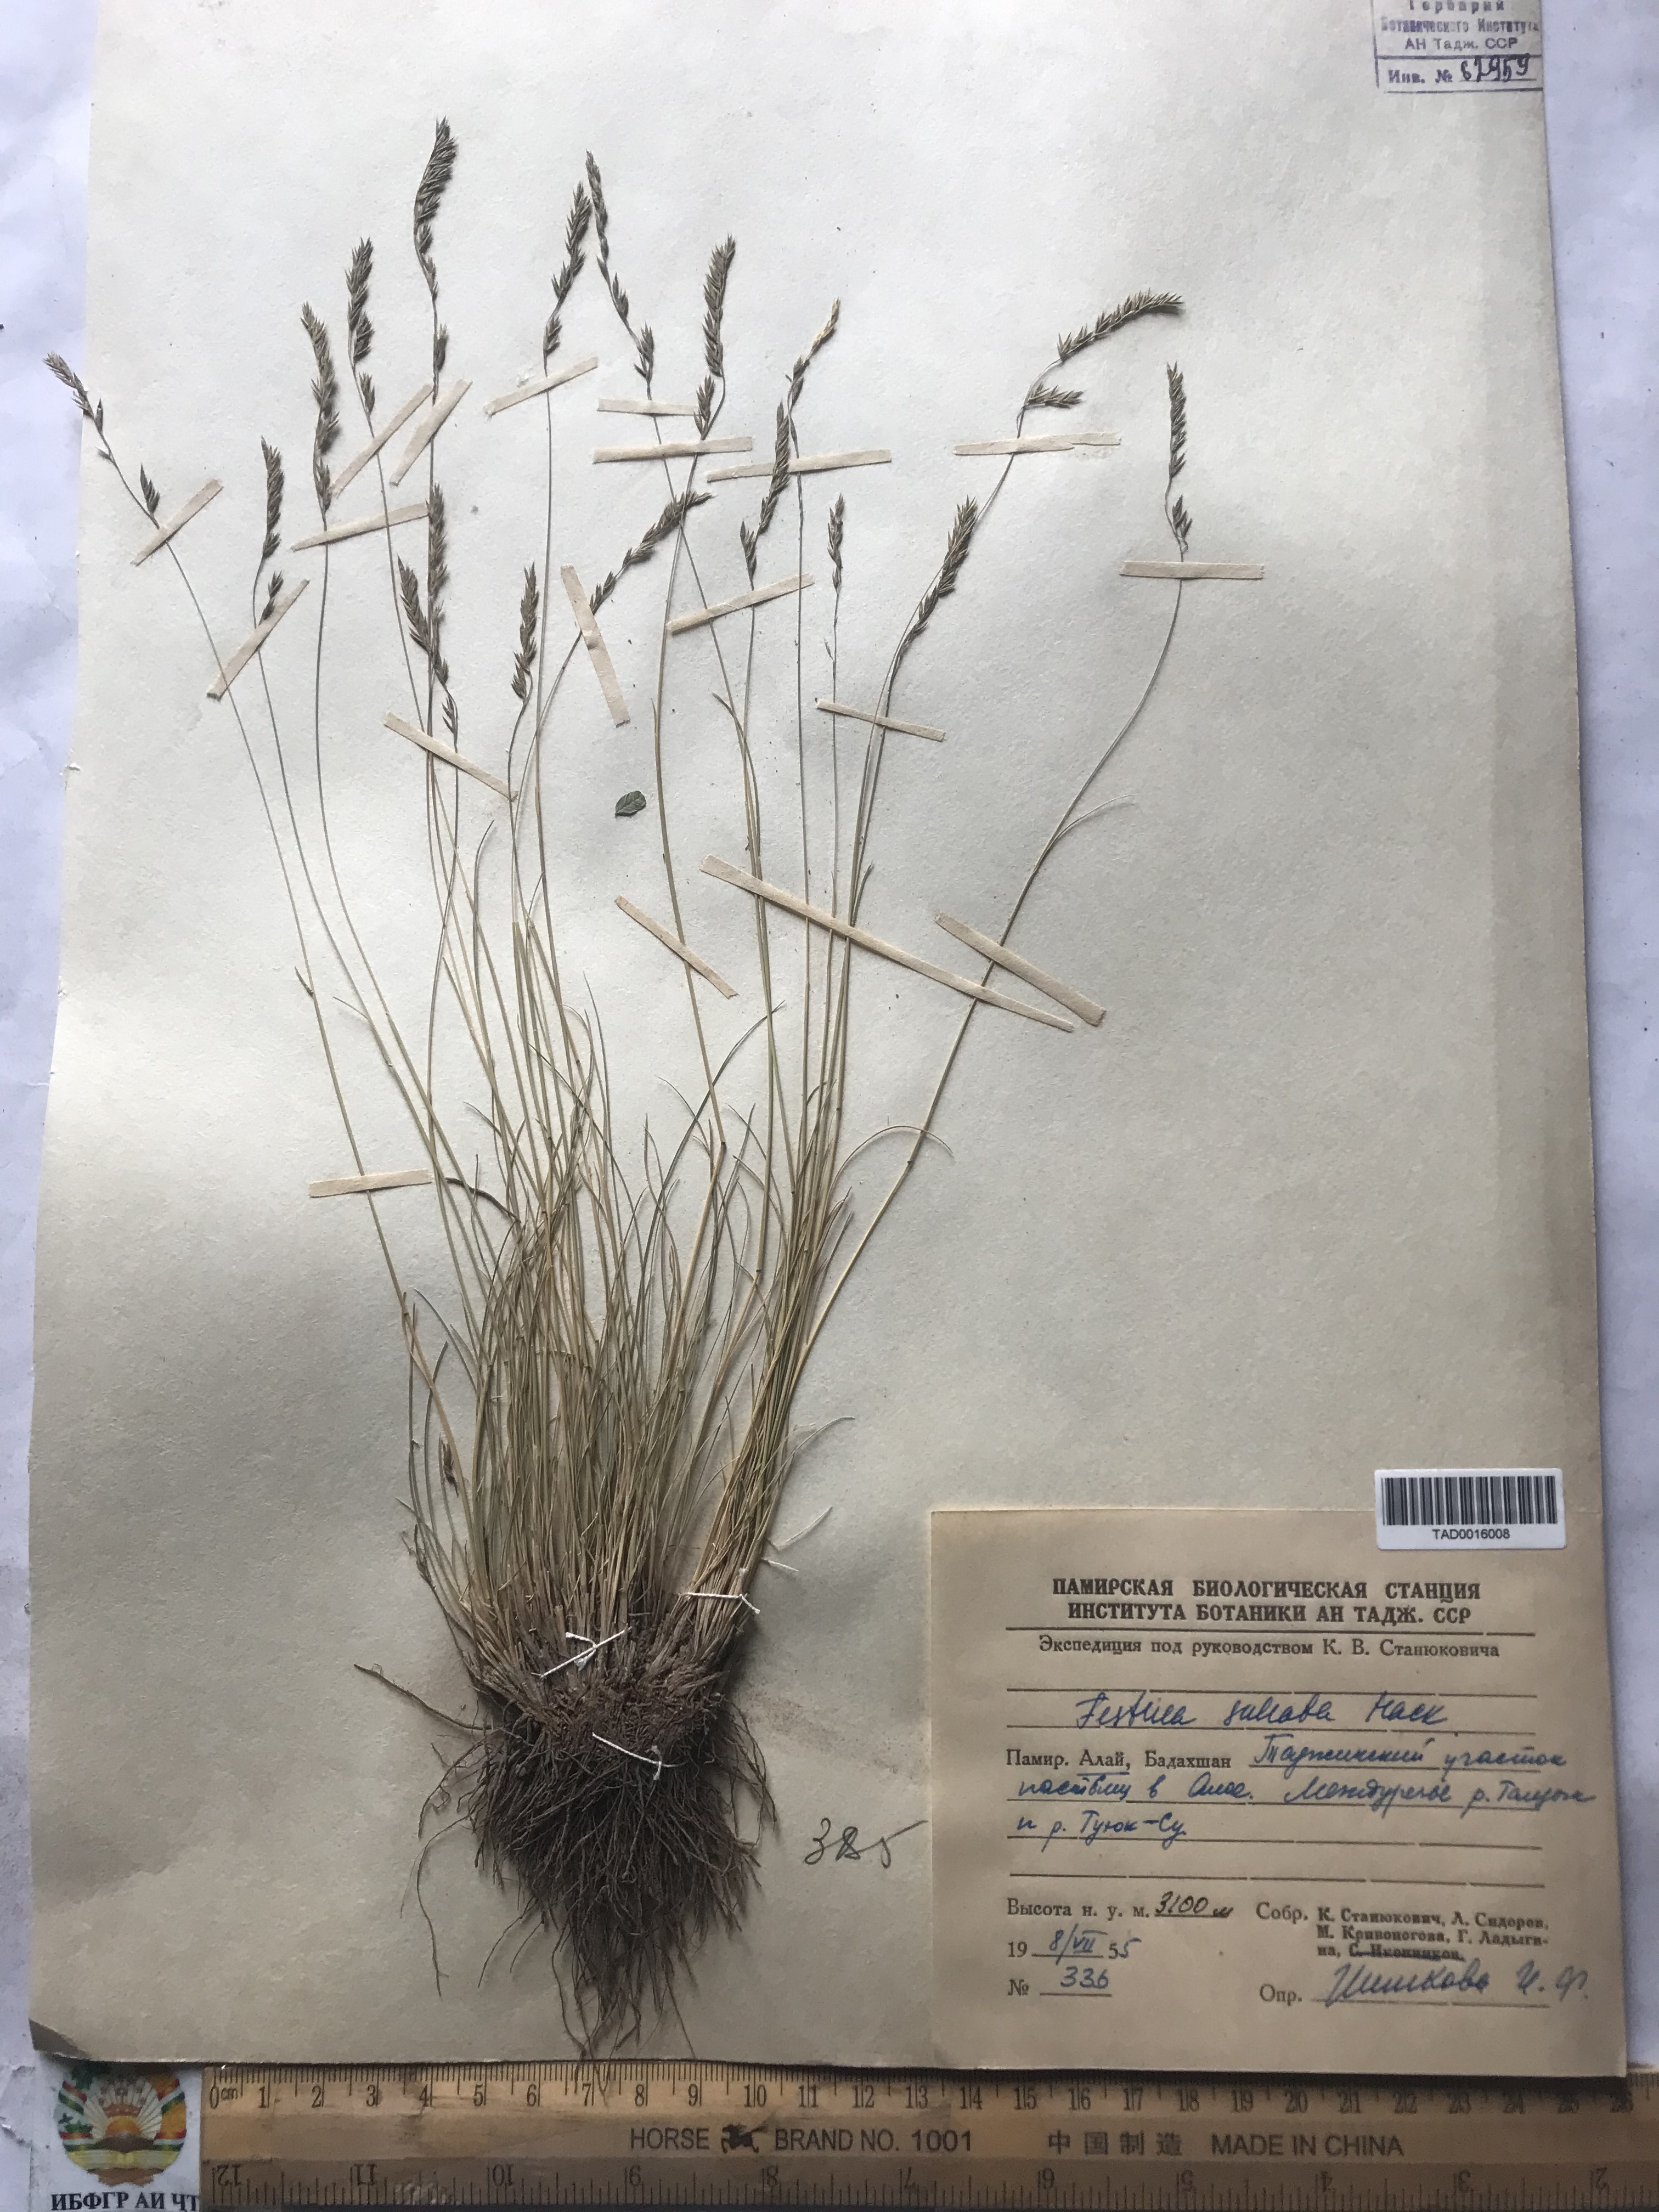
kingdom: Plantae
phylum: Tracheophyta
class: Liliopsida
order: Poales
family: Poaceae
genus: Festuca
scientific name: Festuca sulcata
